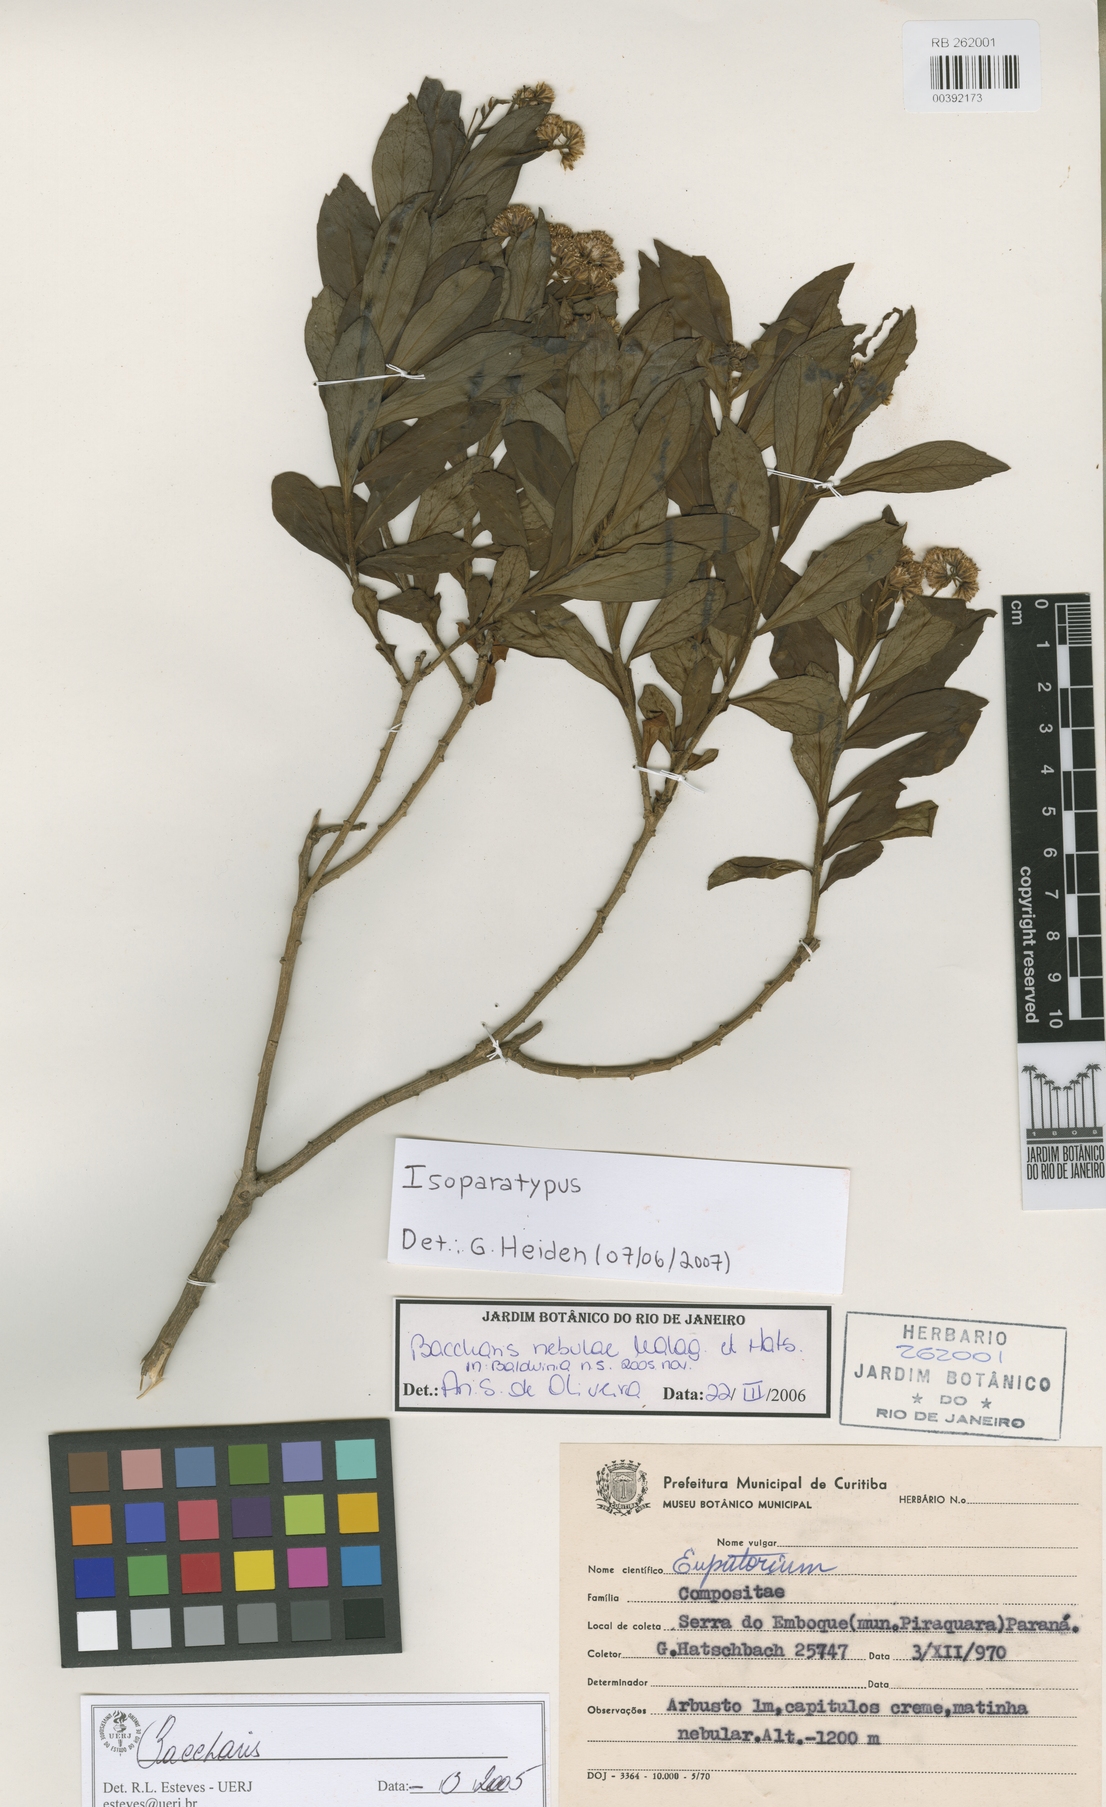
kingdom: Plantae
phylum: Tracheophyta
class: Magnoliopsida
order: Asterales
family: Asteraceae
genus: Baccharis
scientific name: Baccharis nebulae
